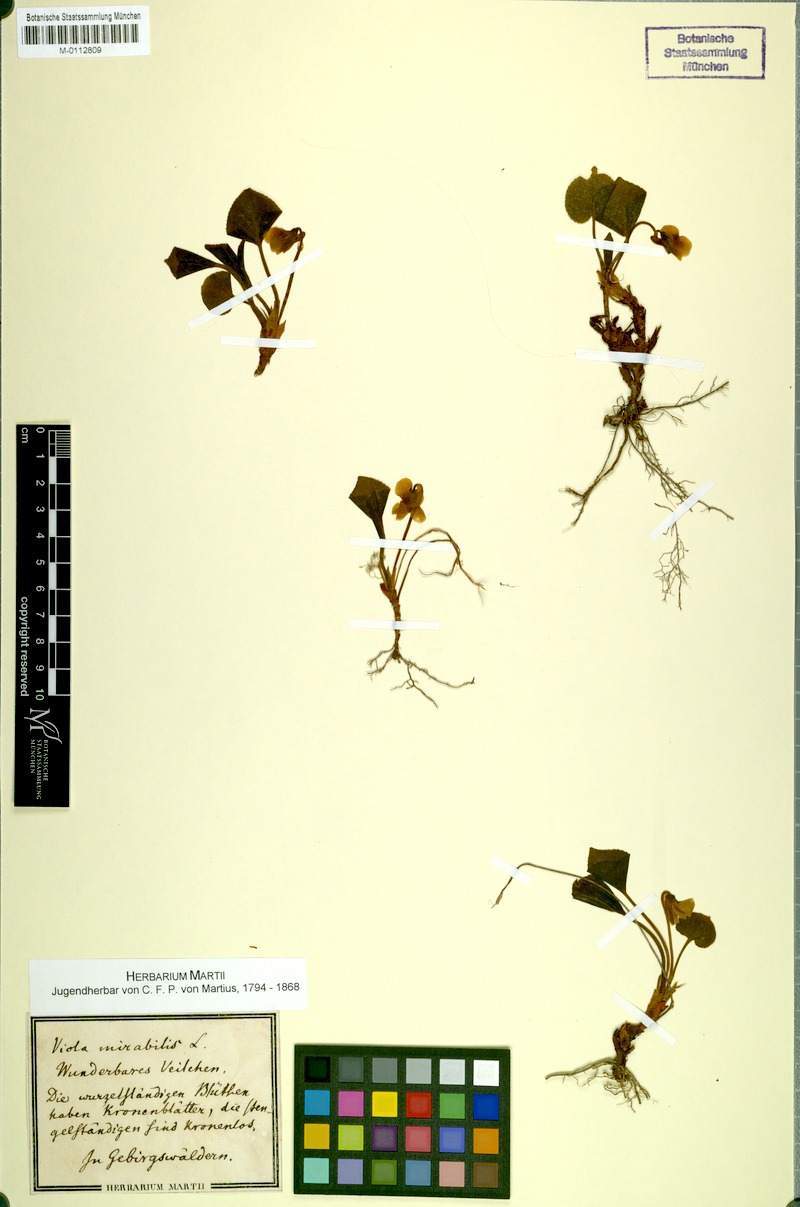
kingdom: Plantae
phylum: Tracheophyta
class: Magnoliopsida
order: Malpighiales
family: Violaceae
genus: Viola
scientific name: Viola mirabilis
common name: Wonder violet
